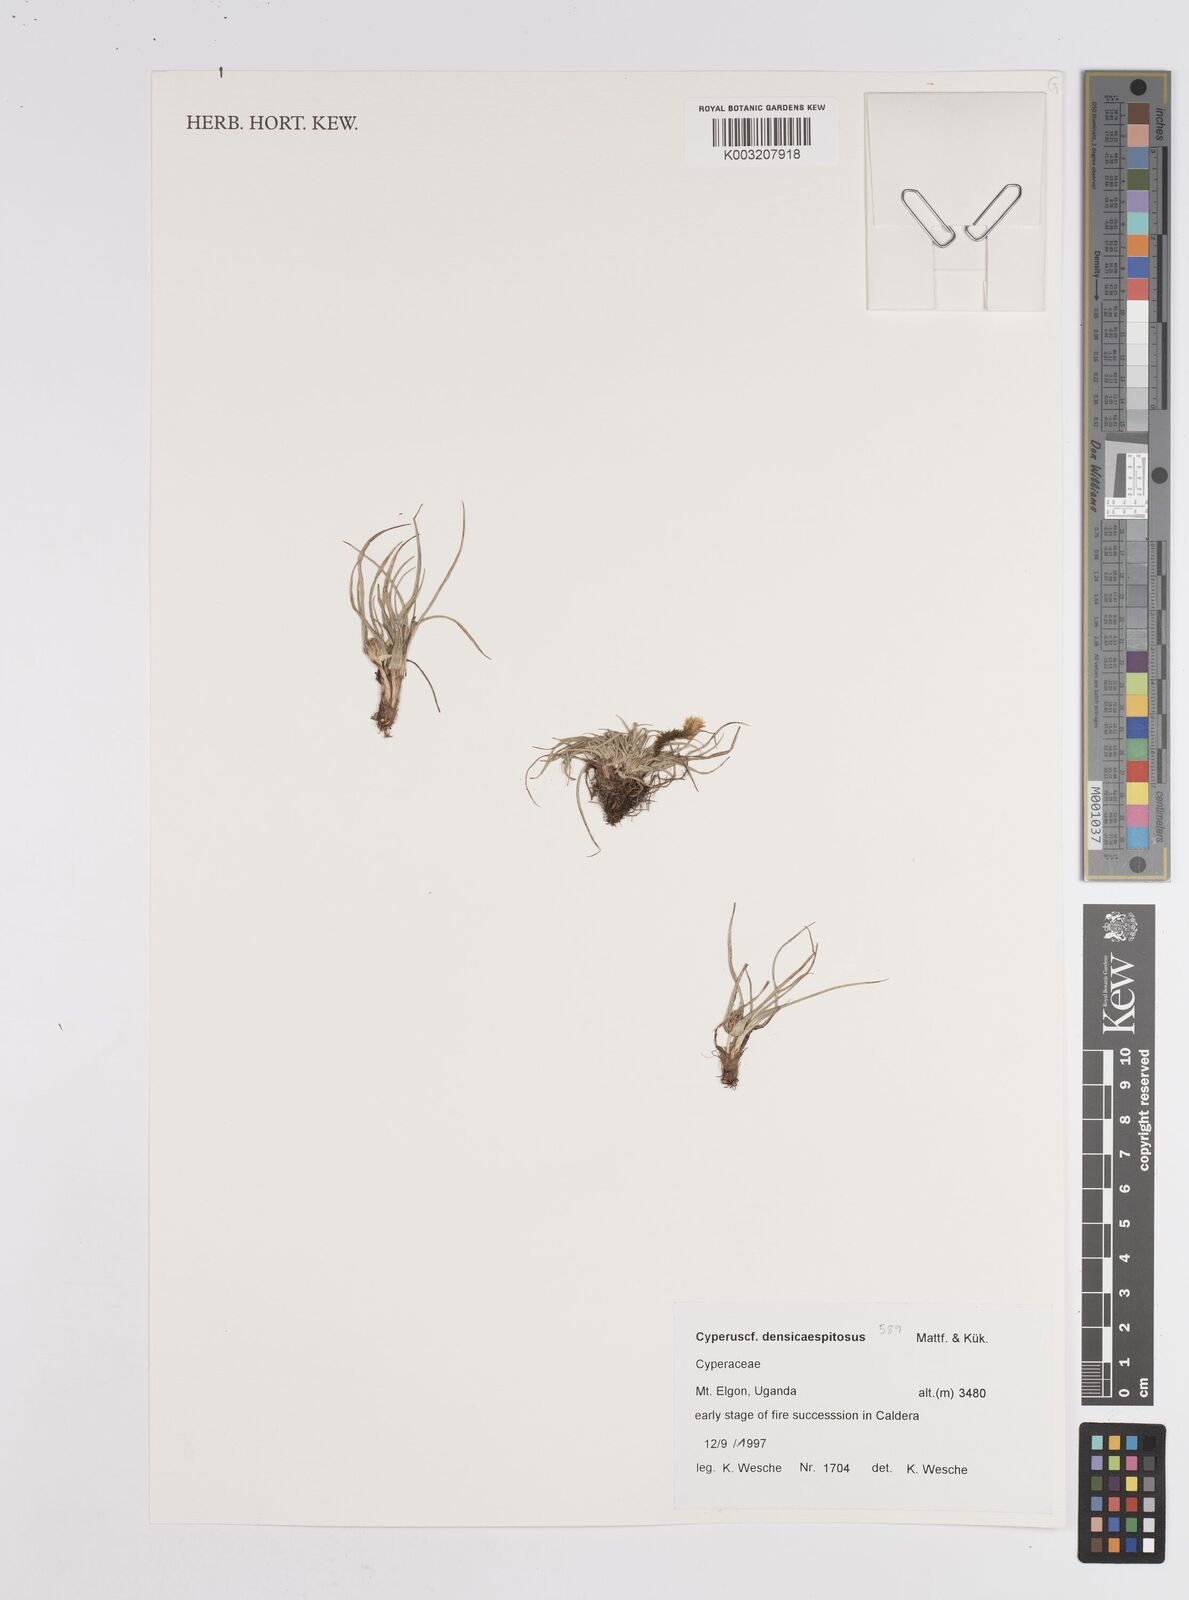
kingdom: Plantae
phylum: Tracheophyta
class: Liliopsida
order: Poales
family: Cyperaceae
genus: Cyperus
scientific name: Cyperus
